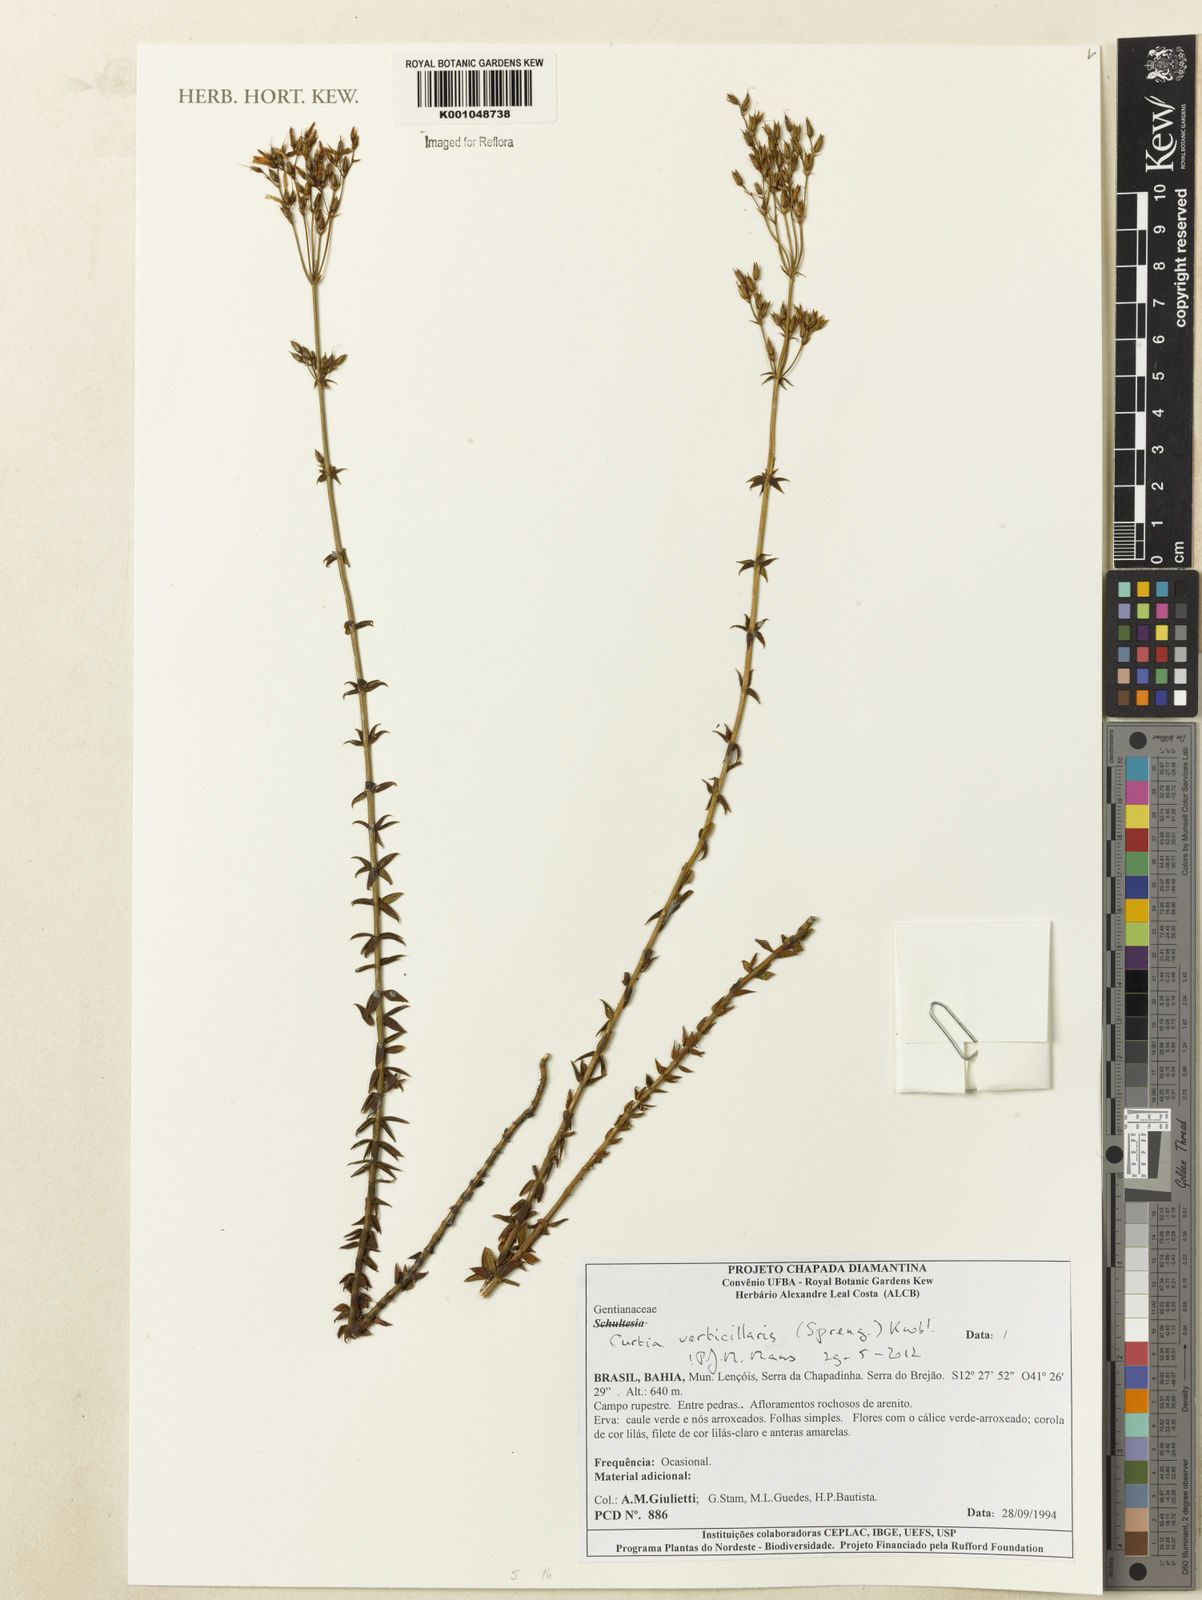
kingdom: Plantae
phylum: Tracheophyta
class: Magnoliopsida
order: Gentianales
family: Gentianaceae
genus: Curtia
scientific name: Curtia verticillaris
